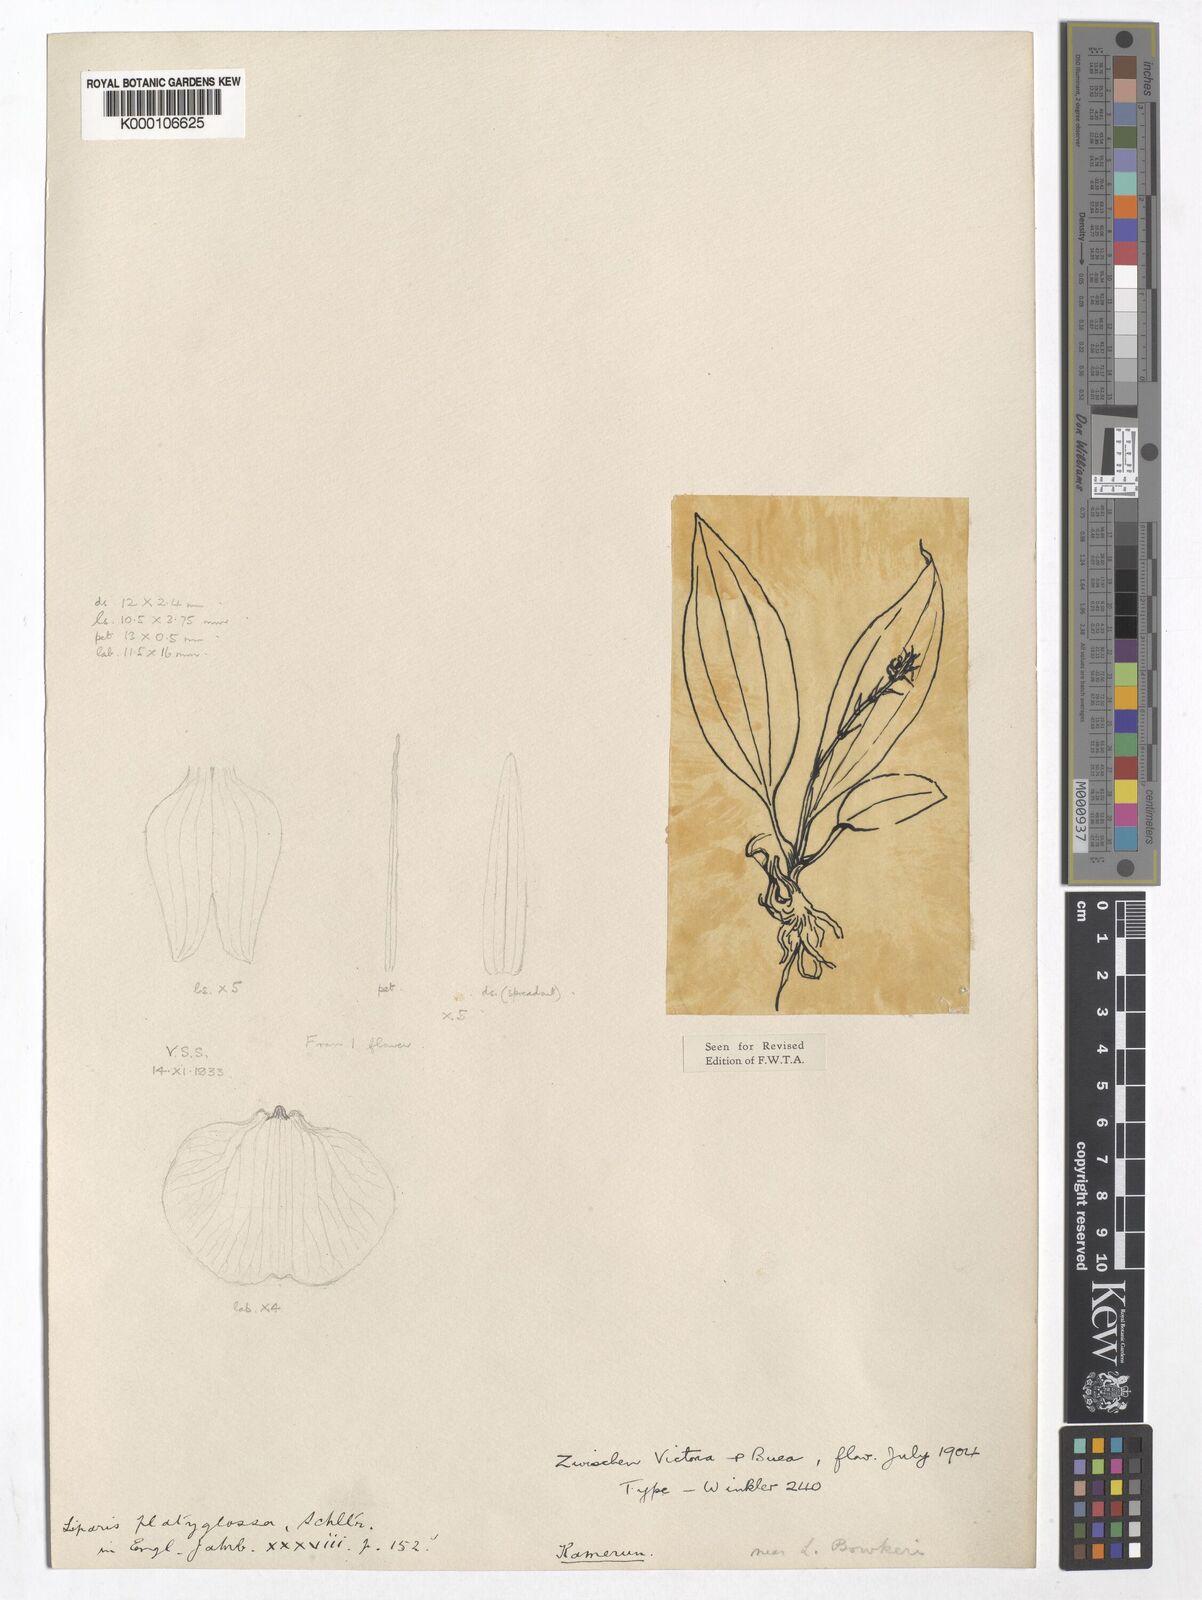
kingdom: Plantae
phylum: Tracheophyta
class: Liliopsida
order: Asparagales
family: Orchidaceae
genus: Liparis
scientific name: Liparis platyglossa
